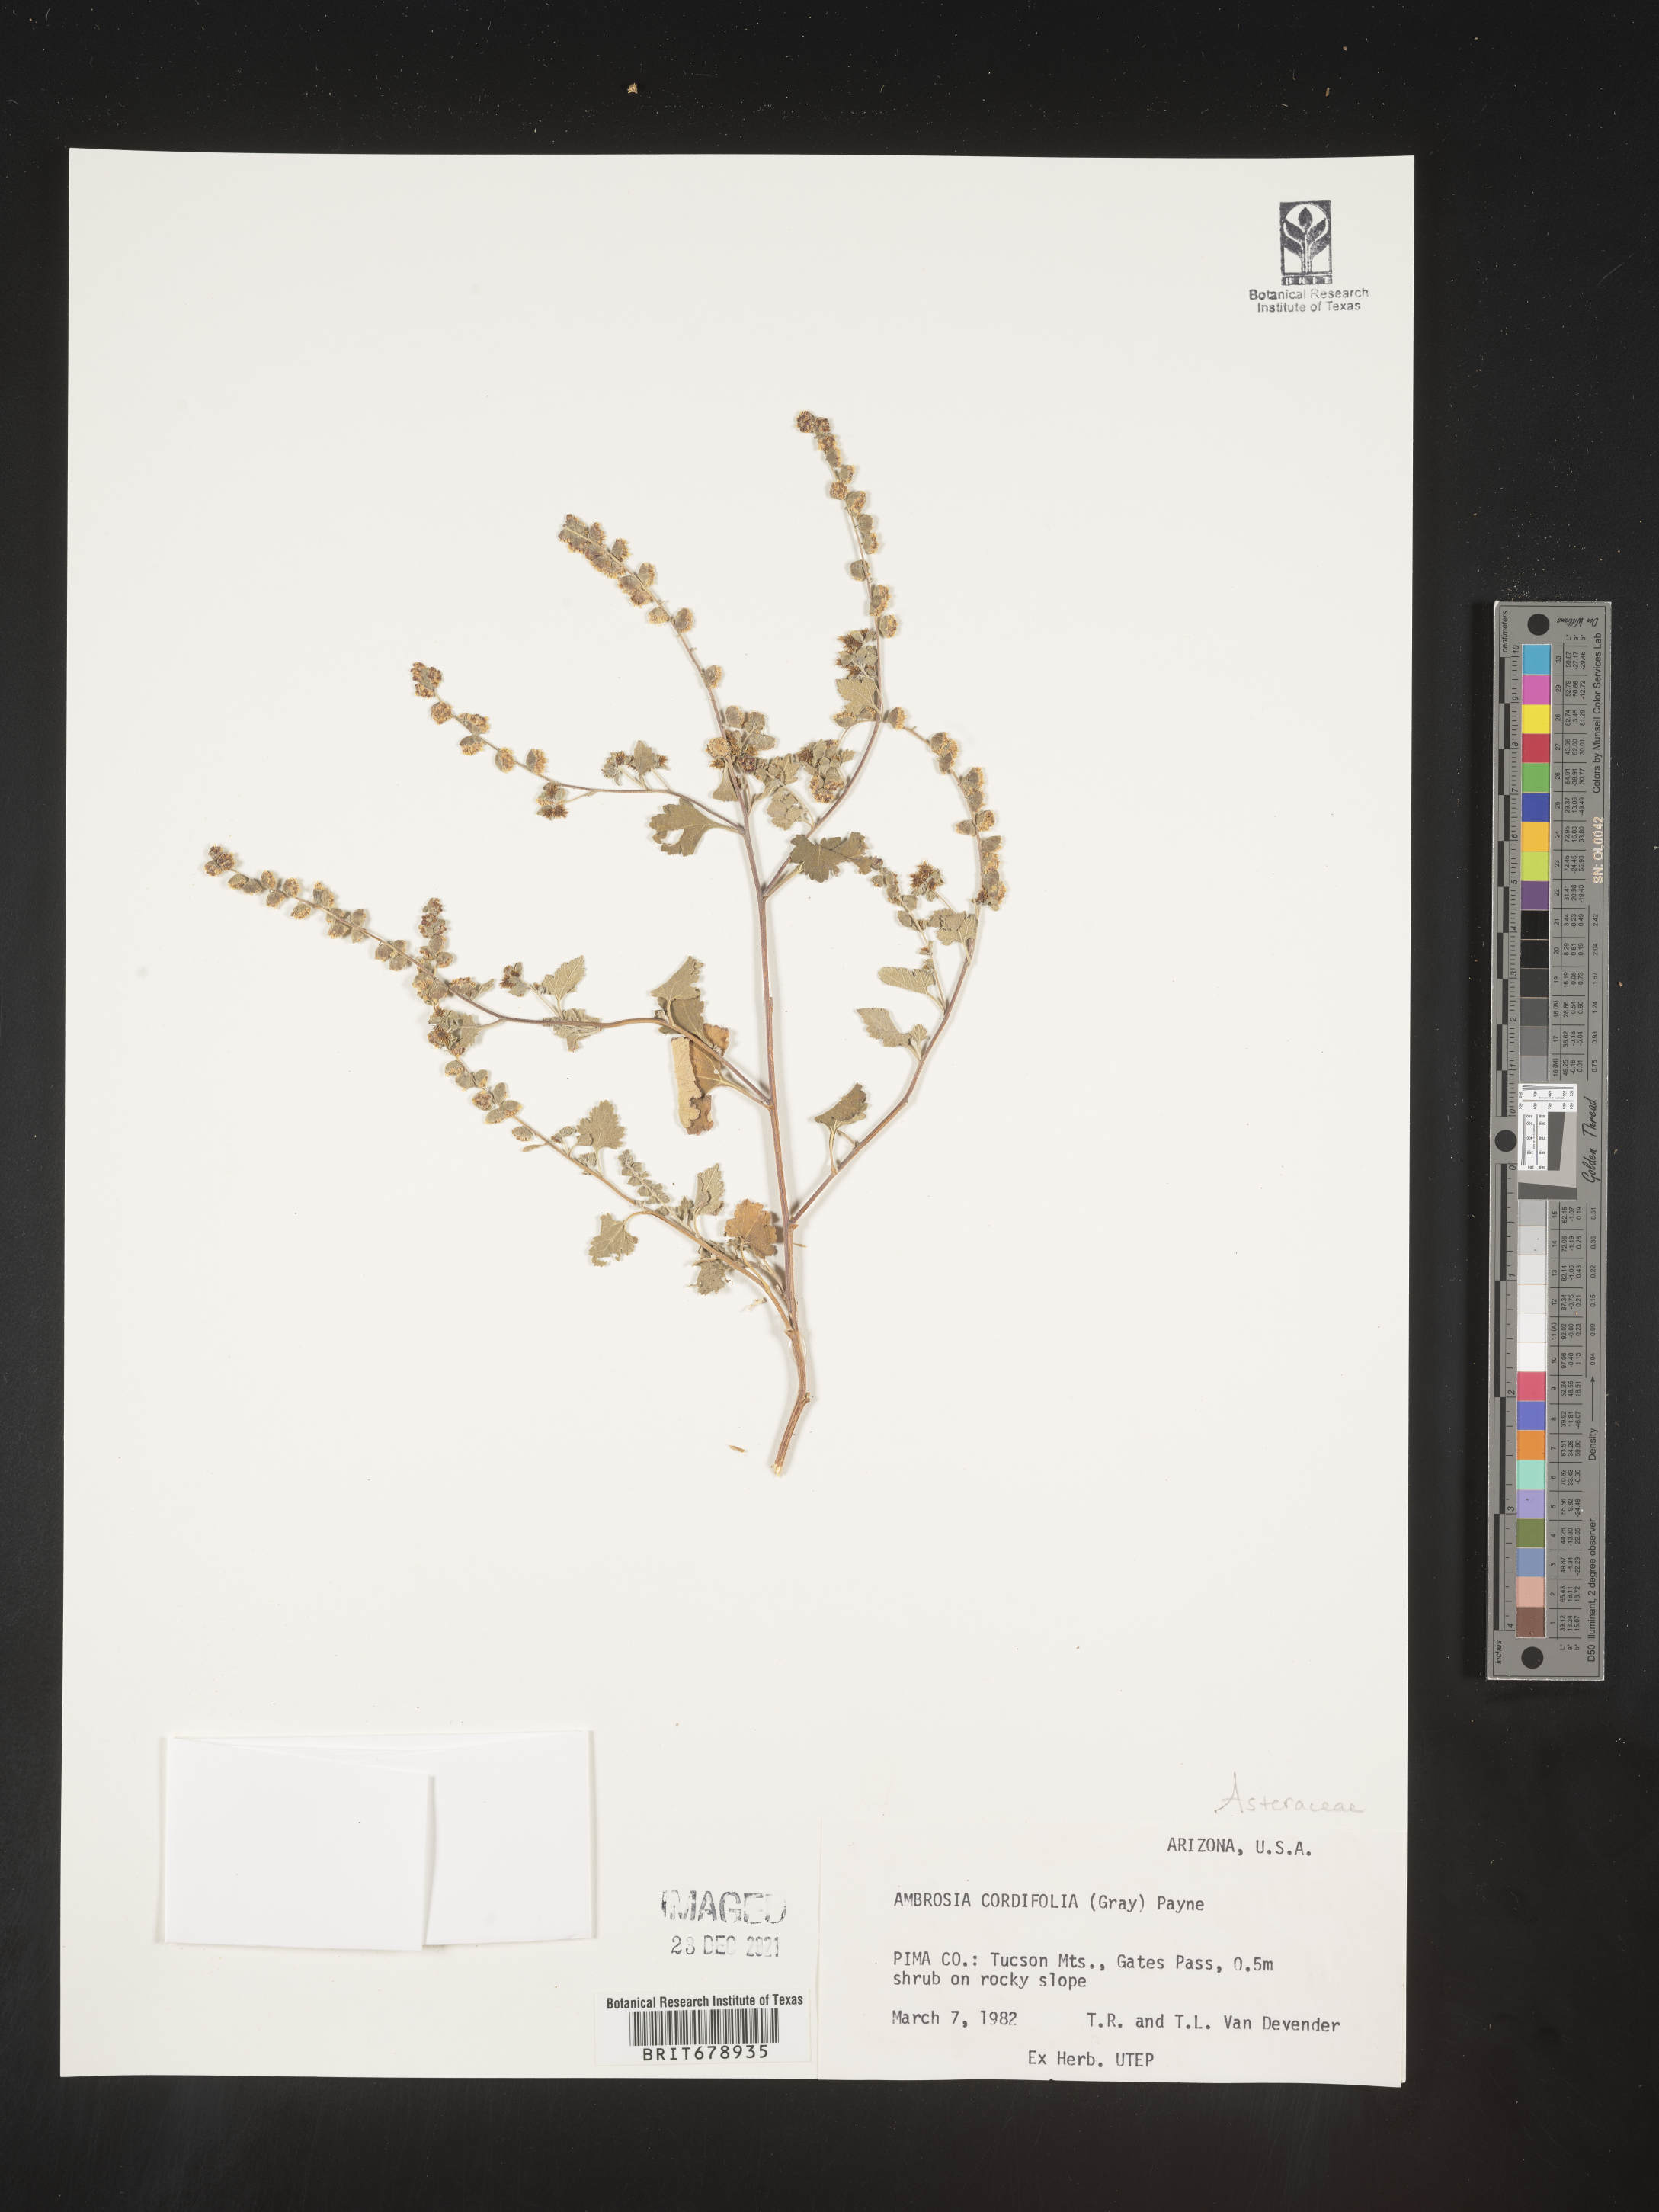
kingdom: Plantae
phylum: Tracheophyta
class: Magnoliopsida
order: Asterales
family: Asteraceae
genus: Ambrosia
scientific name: Ambrosia cordifolia
